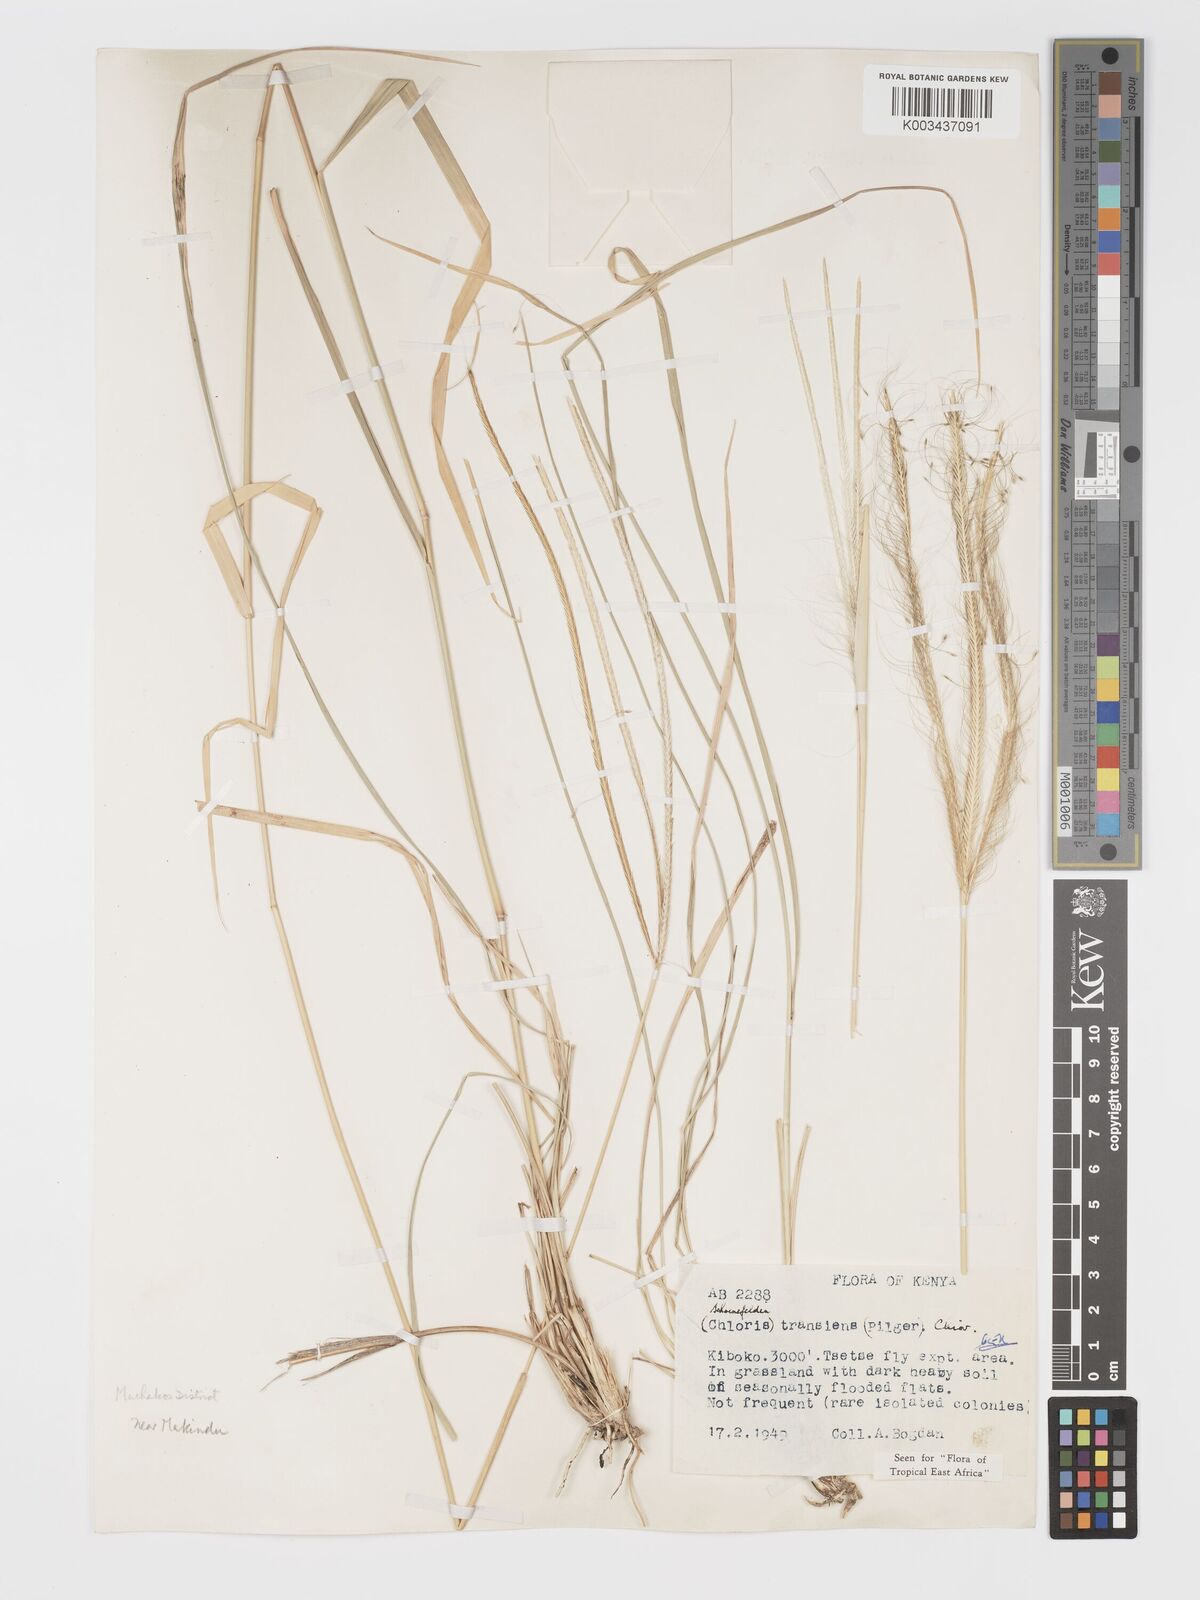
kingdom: Plantae
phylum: Tracheophyta
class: Liliopsida
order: Poales
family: Poaceae
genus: Schoenefeldia
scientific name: Schoenefeldia transiens
